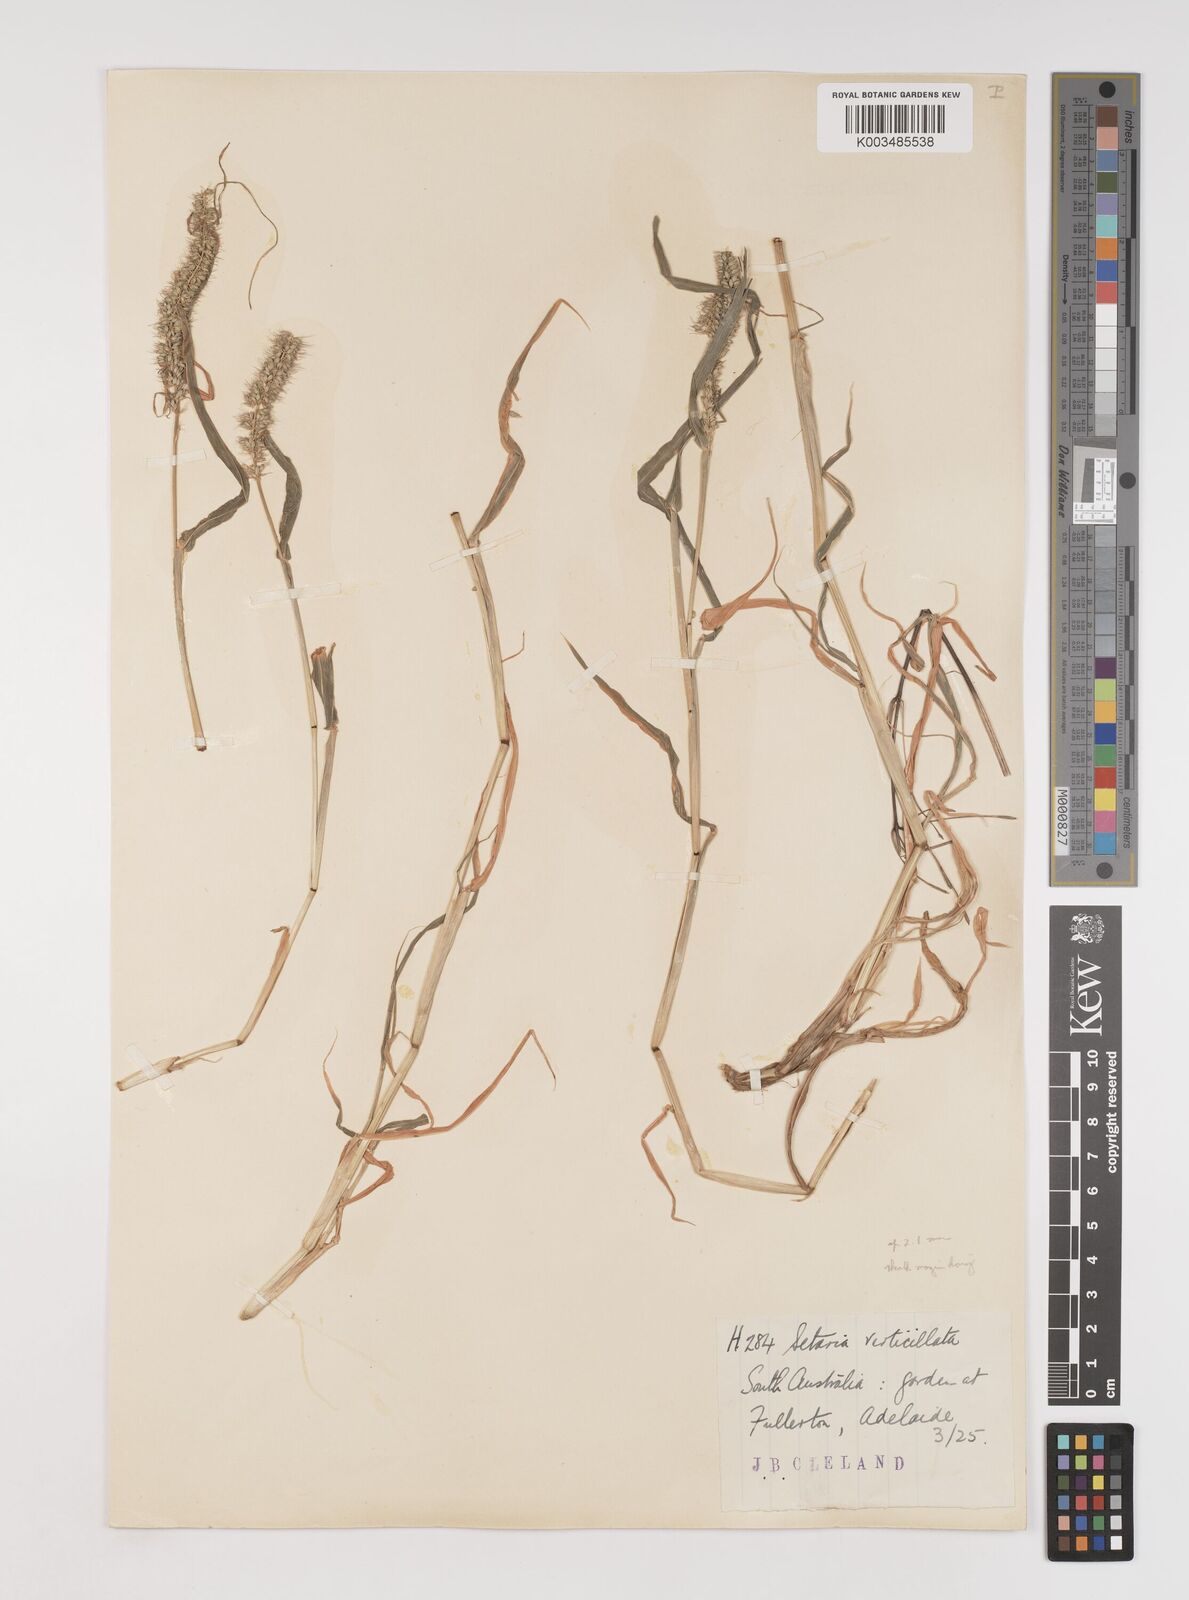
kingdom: Plantae
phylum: Tracheophyta
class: Liliopsida
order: Poales
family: Poaceae
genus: Setaria
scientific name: Setaria verticillata
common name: Hooked bristlegrass
